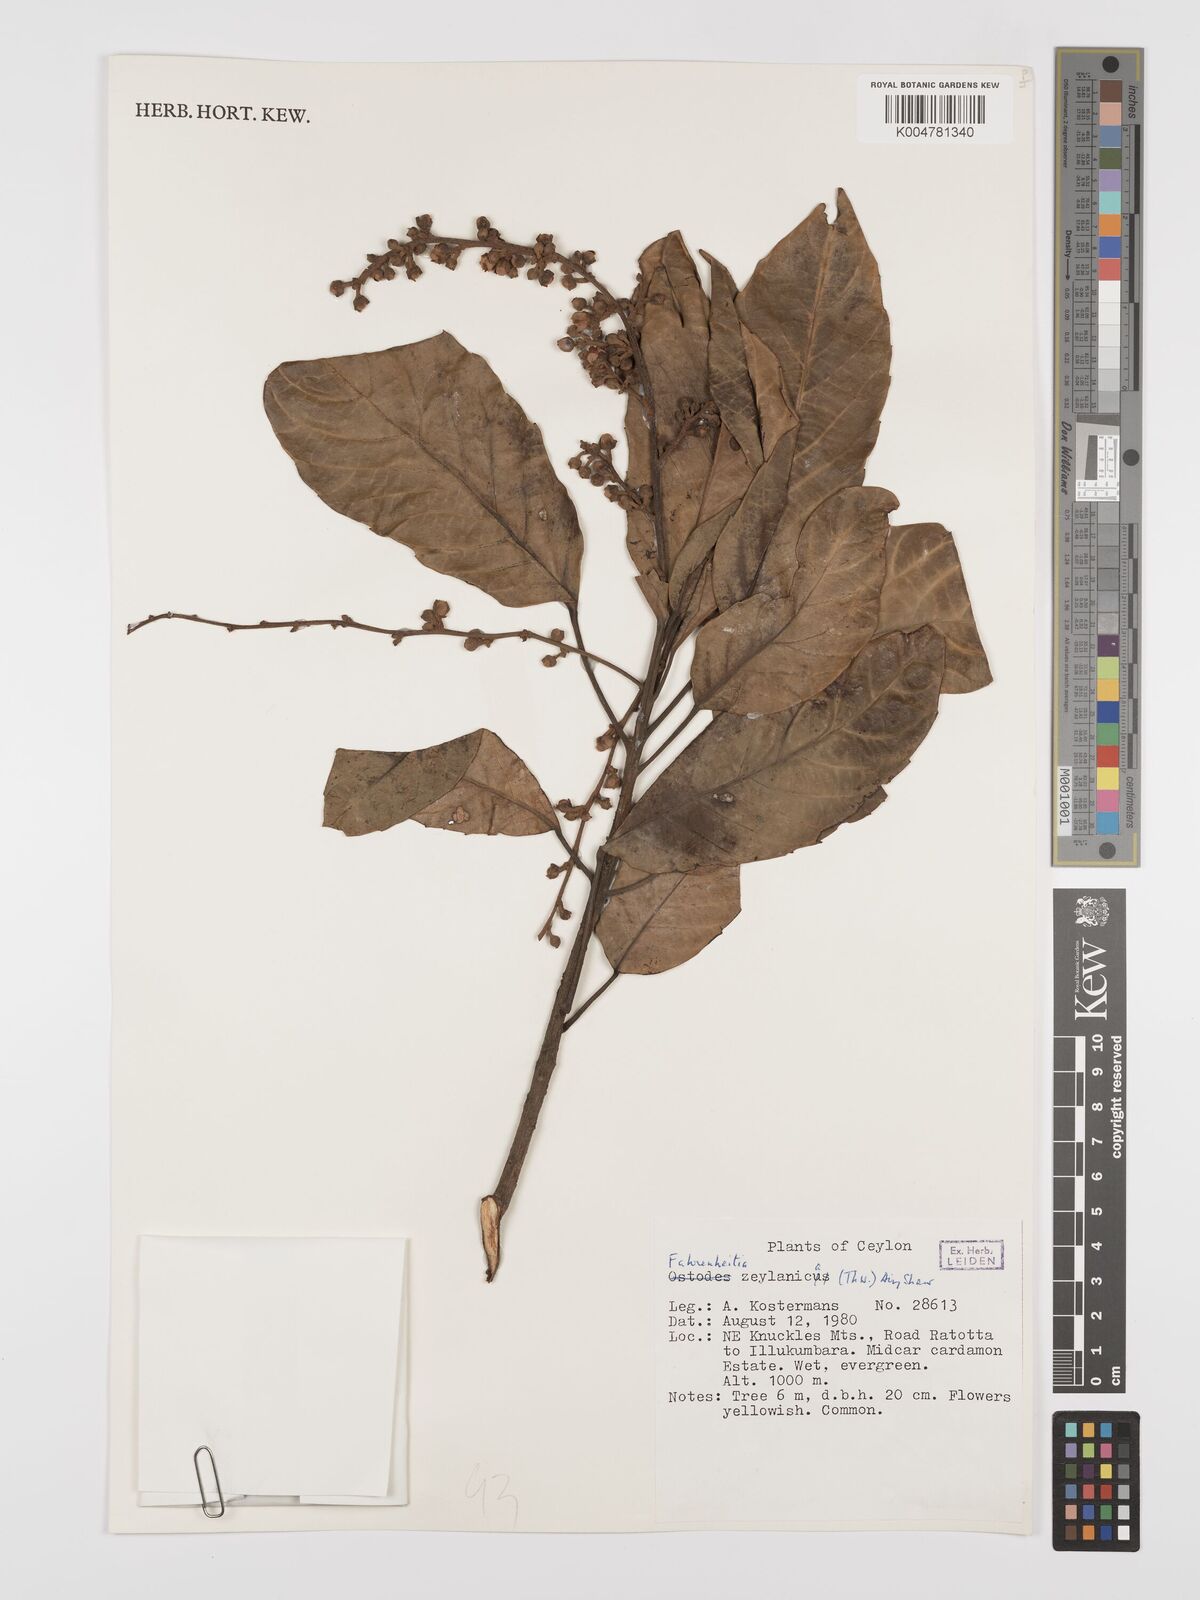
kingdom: Plantae
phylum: Tracheophyta
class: Magnoliopsida
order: Malpighiales
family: Euphorbiaceae
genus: Paracroton
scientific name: Paracroton zeylanicus
